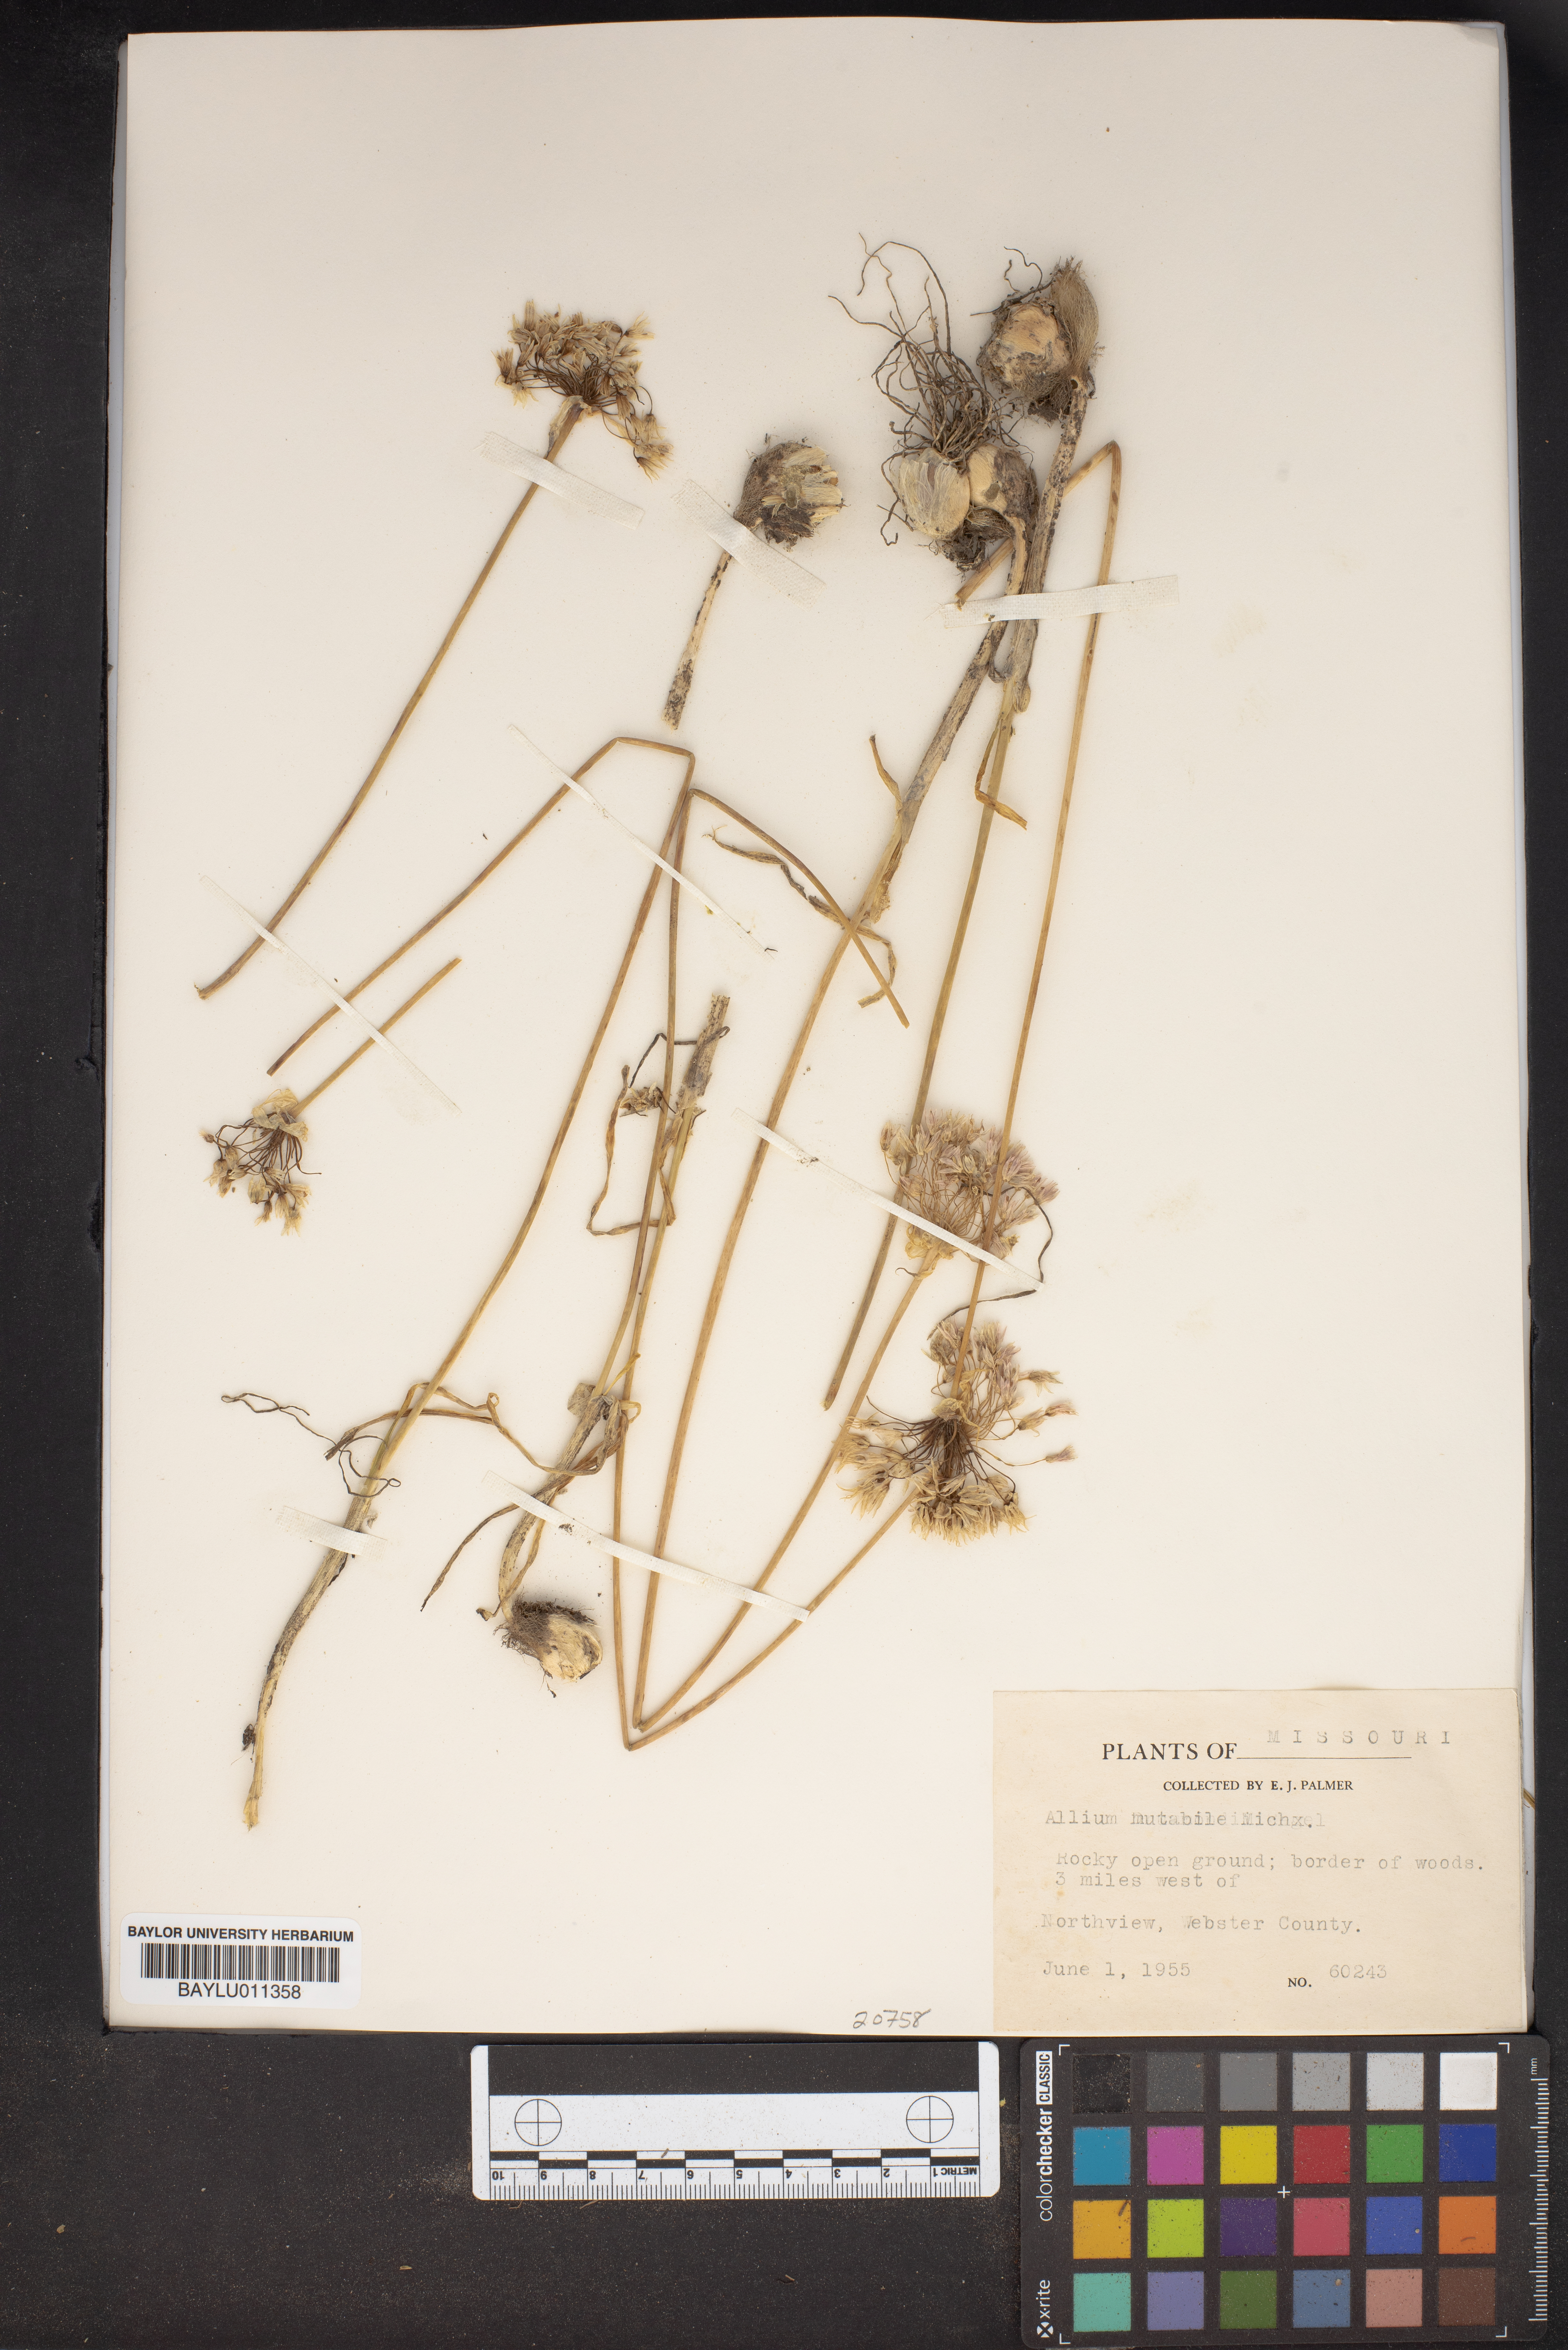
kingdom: Plantae
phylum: Tracheophyta
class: Liliopsida
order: Asparagales
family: Amaryllidaceae
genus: Allium
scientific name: Allium canadense
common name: Meadow garlic
